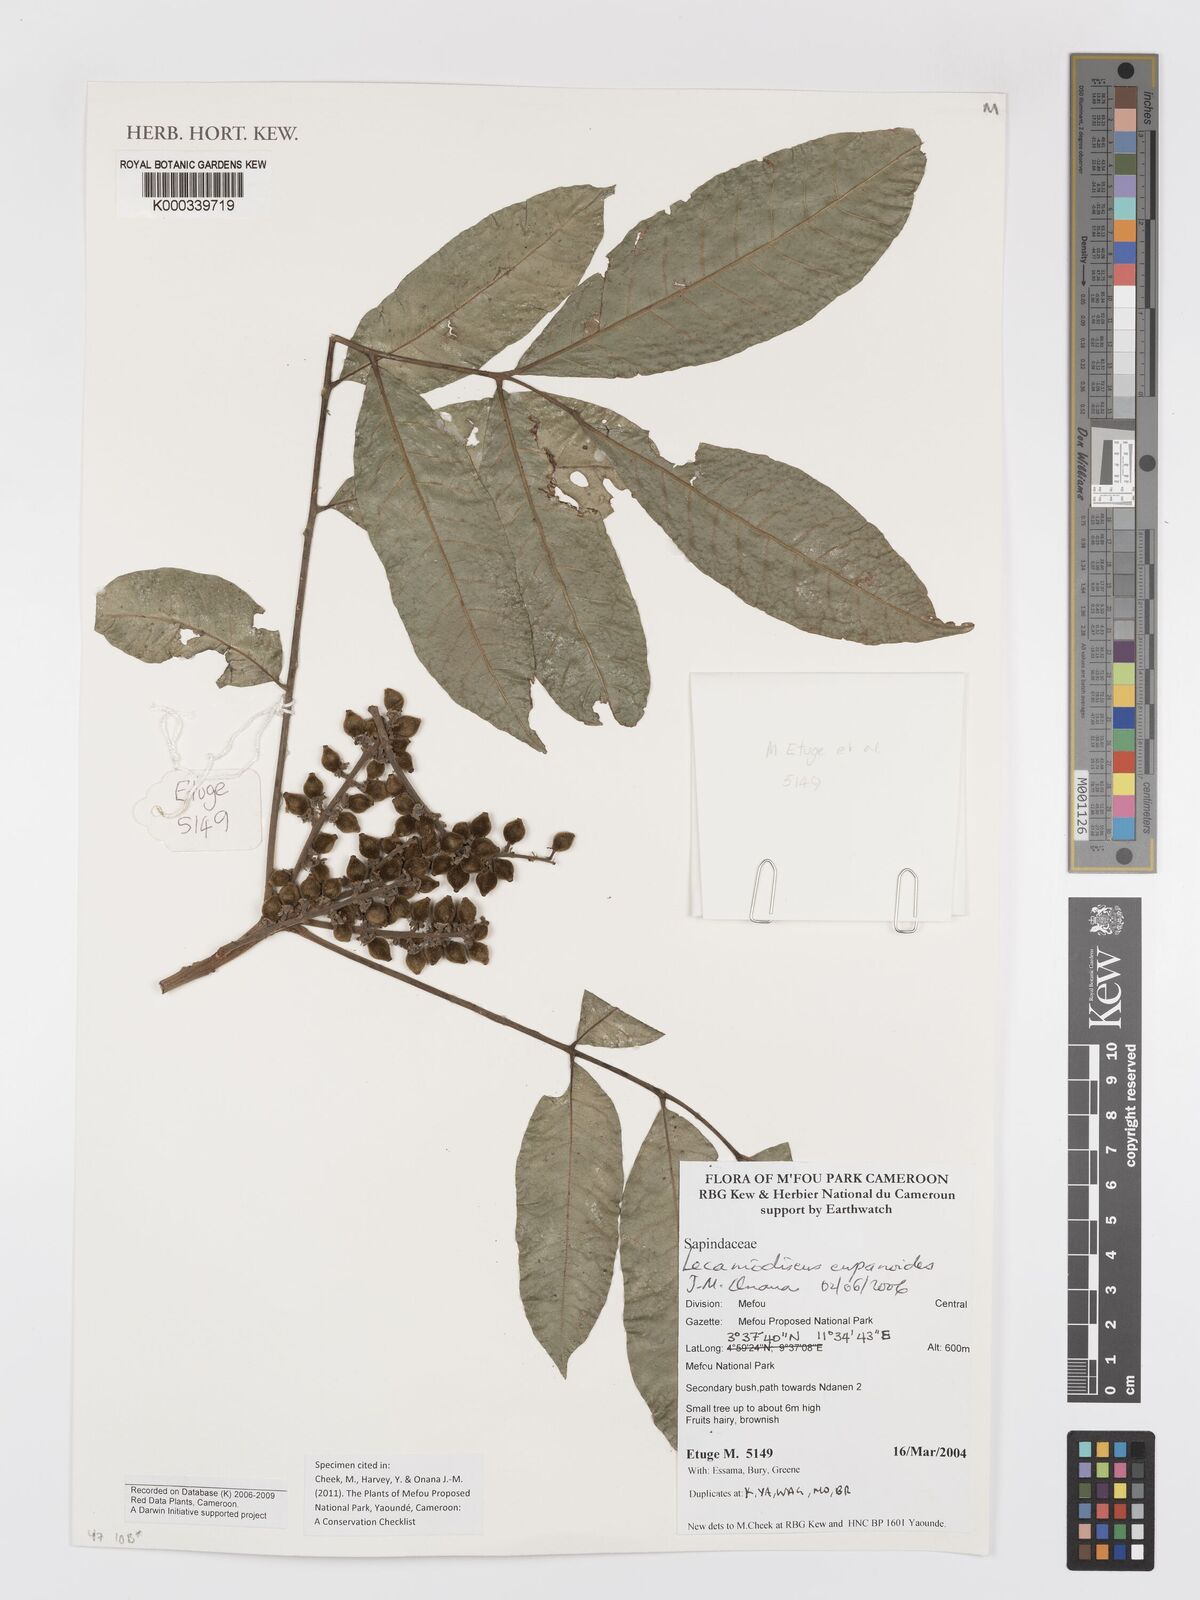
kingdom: Plantae
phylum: Tracheophyta
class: Magnoliopsida
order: Sapindales
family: Sapindaceae
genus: Lecaniodiscus
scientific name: Lecaniodiscus cupanioides
